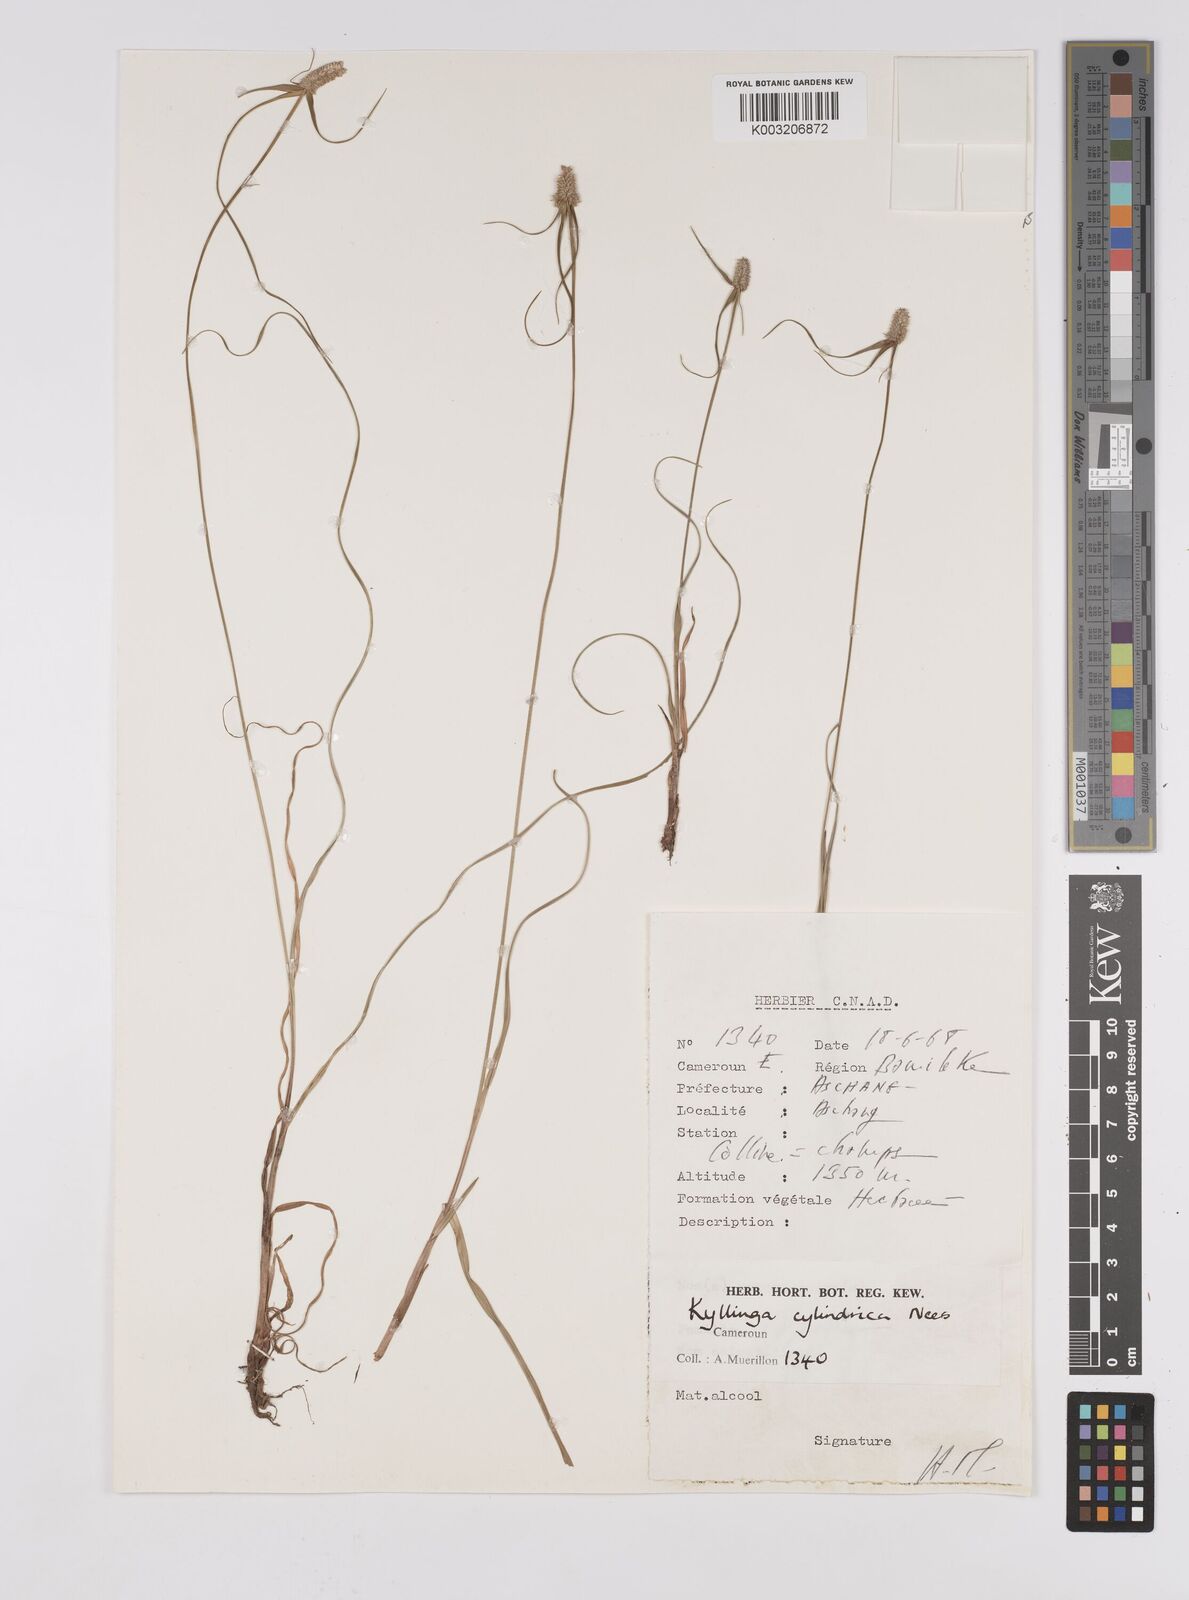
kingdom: Plantae
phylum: Tracheophyta
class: Liliopsida
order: Poales
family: Cyperaceae
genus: Cyperus
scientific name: Cyperus odoratus
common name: Fragrant flatsedge
